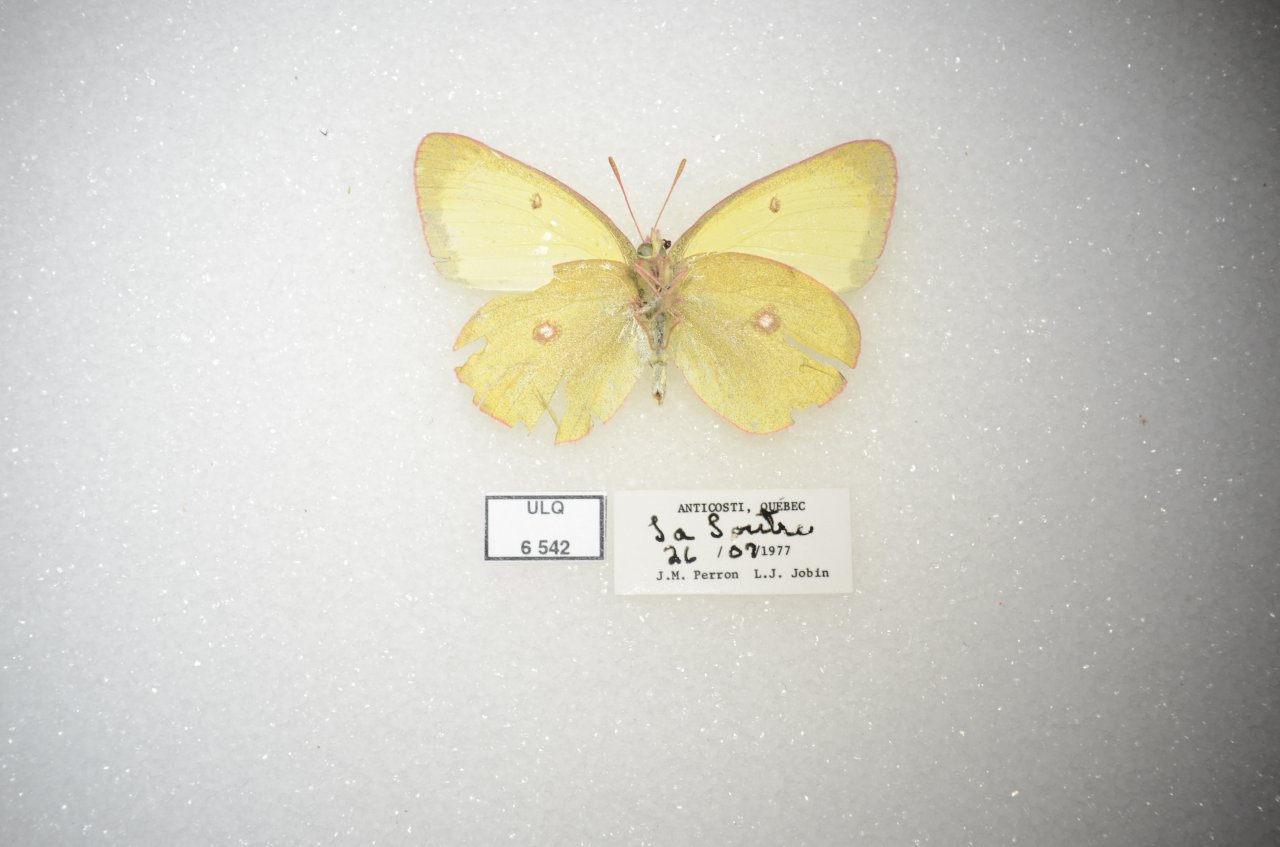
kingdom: Animalia
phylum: Arthropoda
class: Insecta
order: Lepidoptera
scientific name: Lepidoptera
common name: Butterflies
